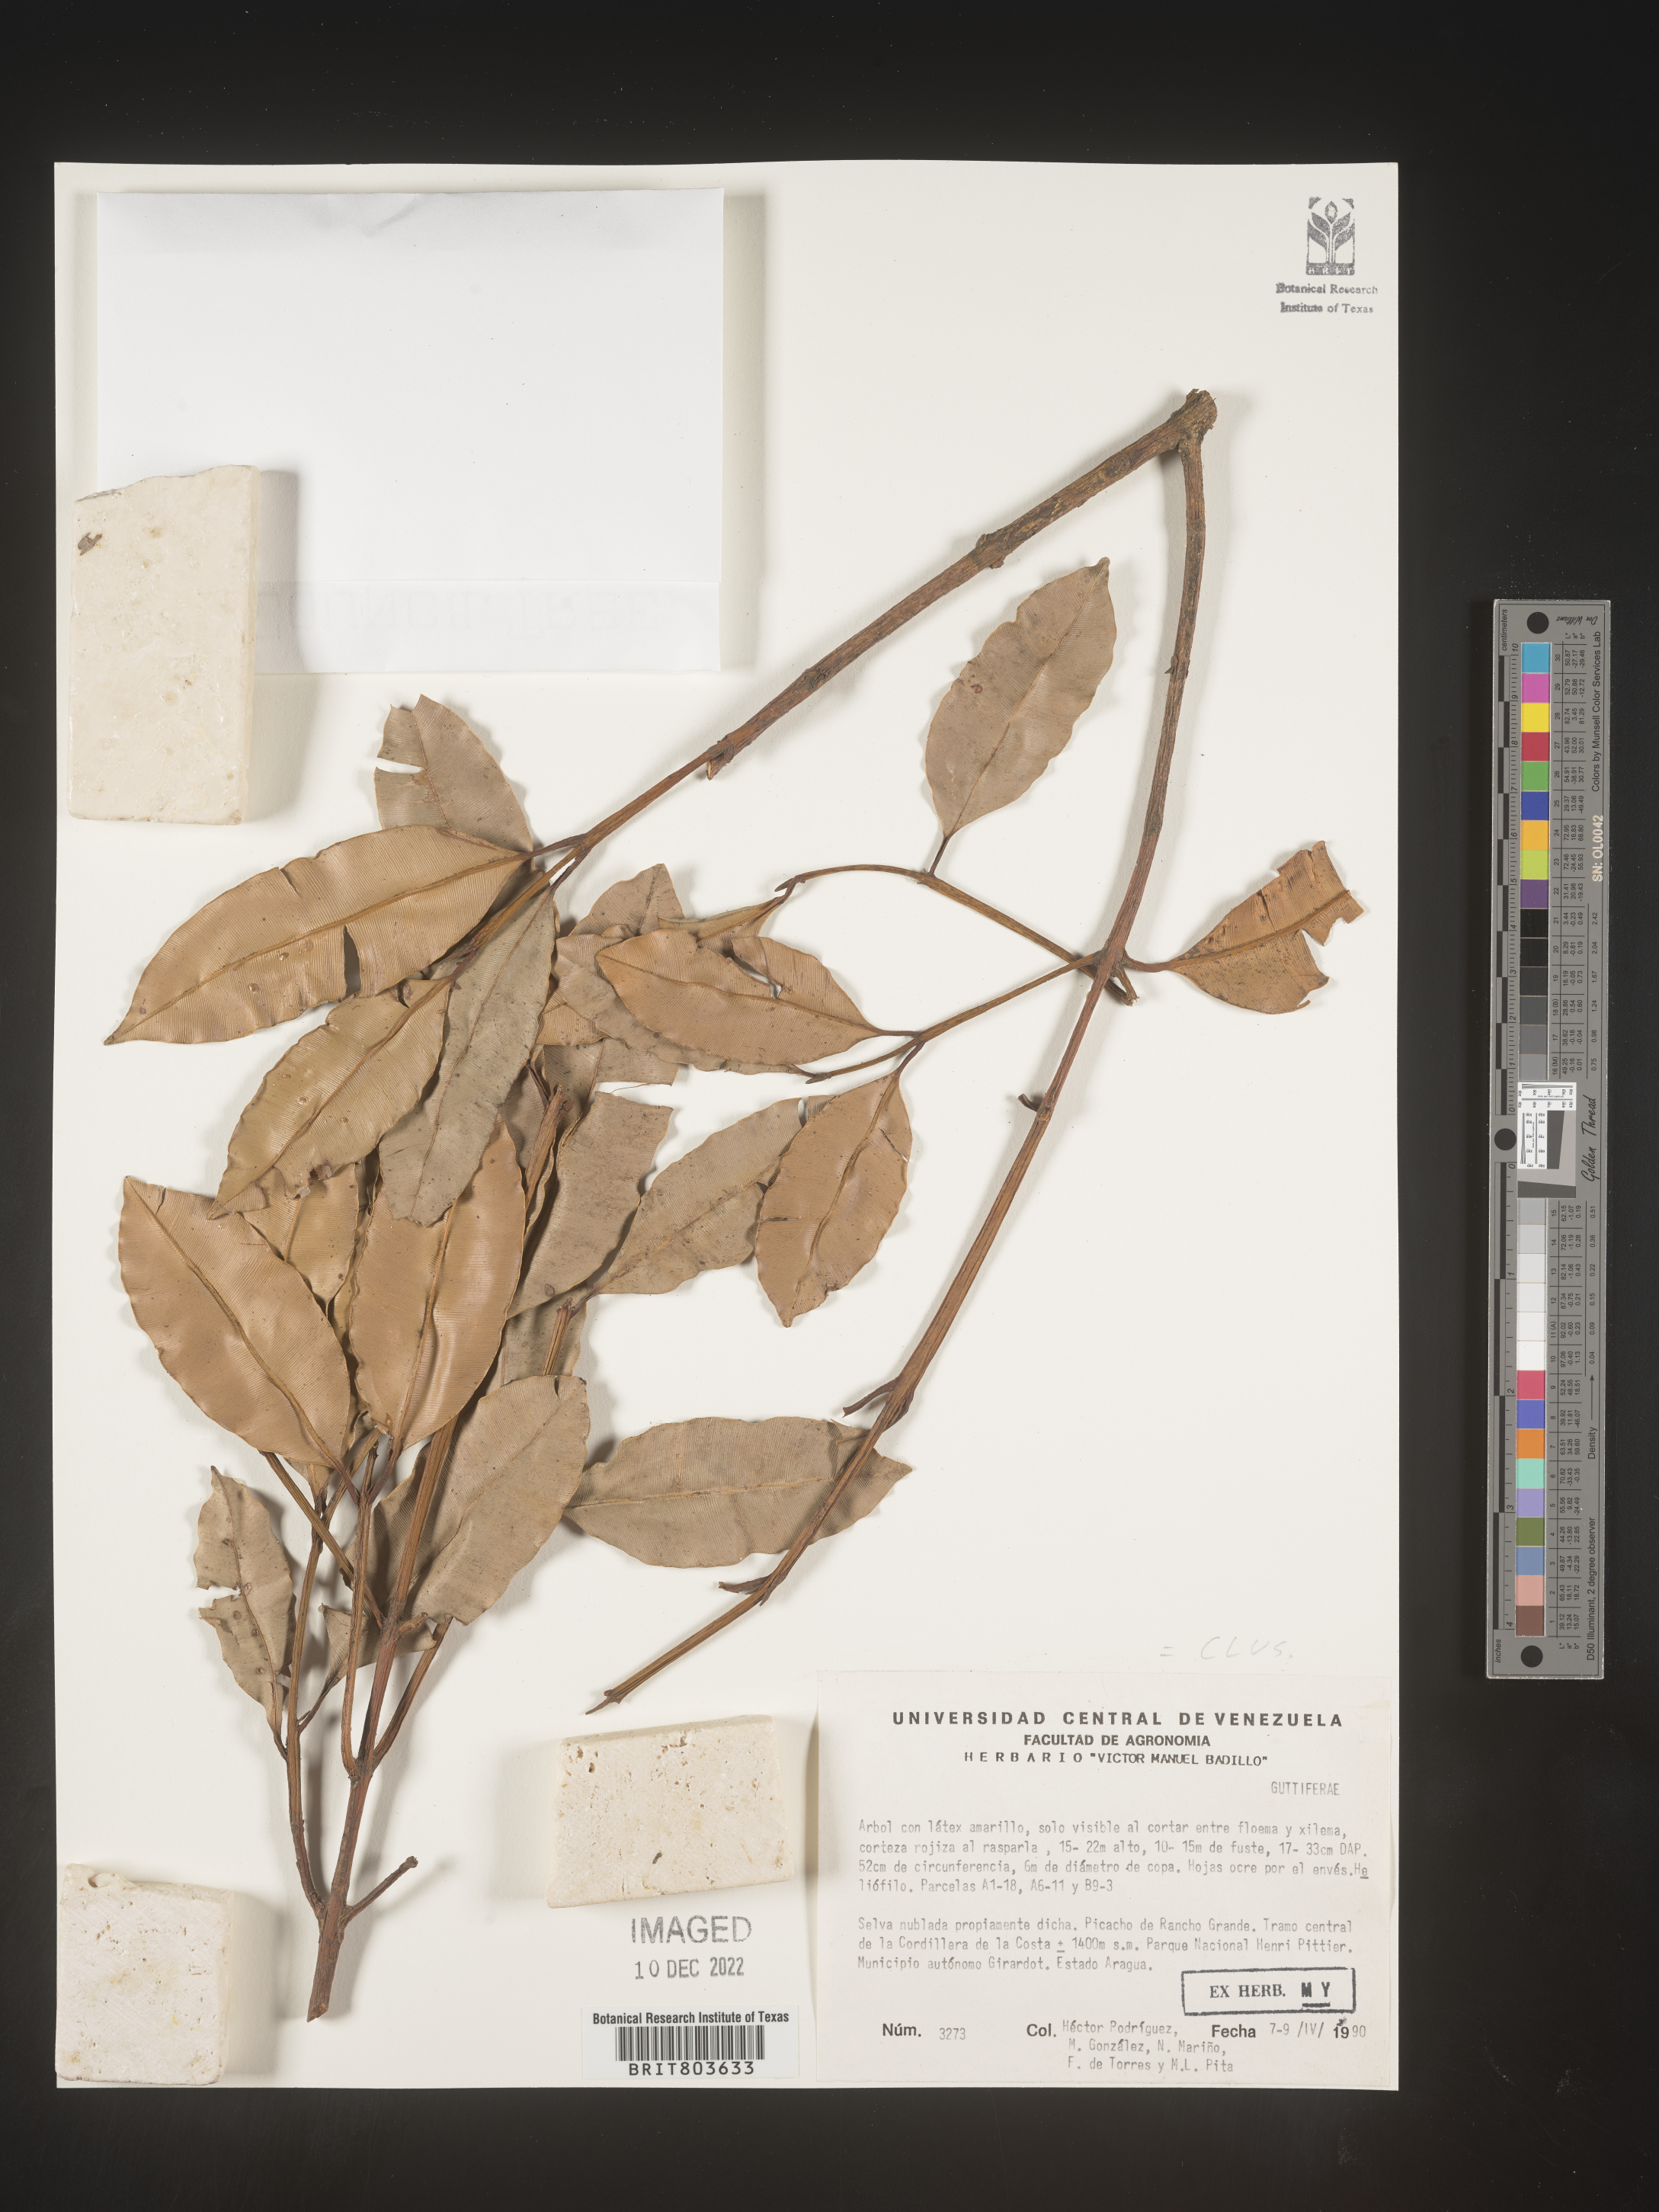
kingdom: Plantae
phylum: Tracheophyta
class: Magnoliopsida
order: Malpighiales
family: Clusiaceae
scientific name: Clusiaceae
